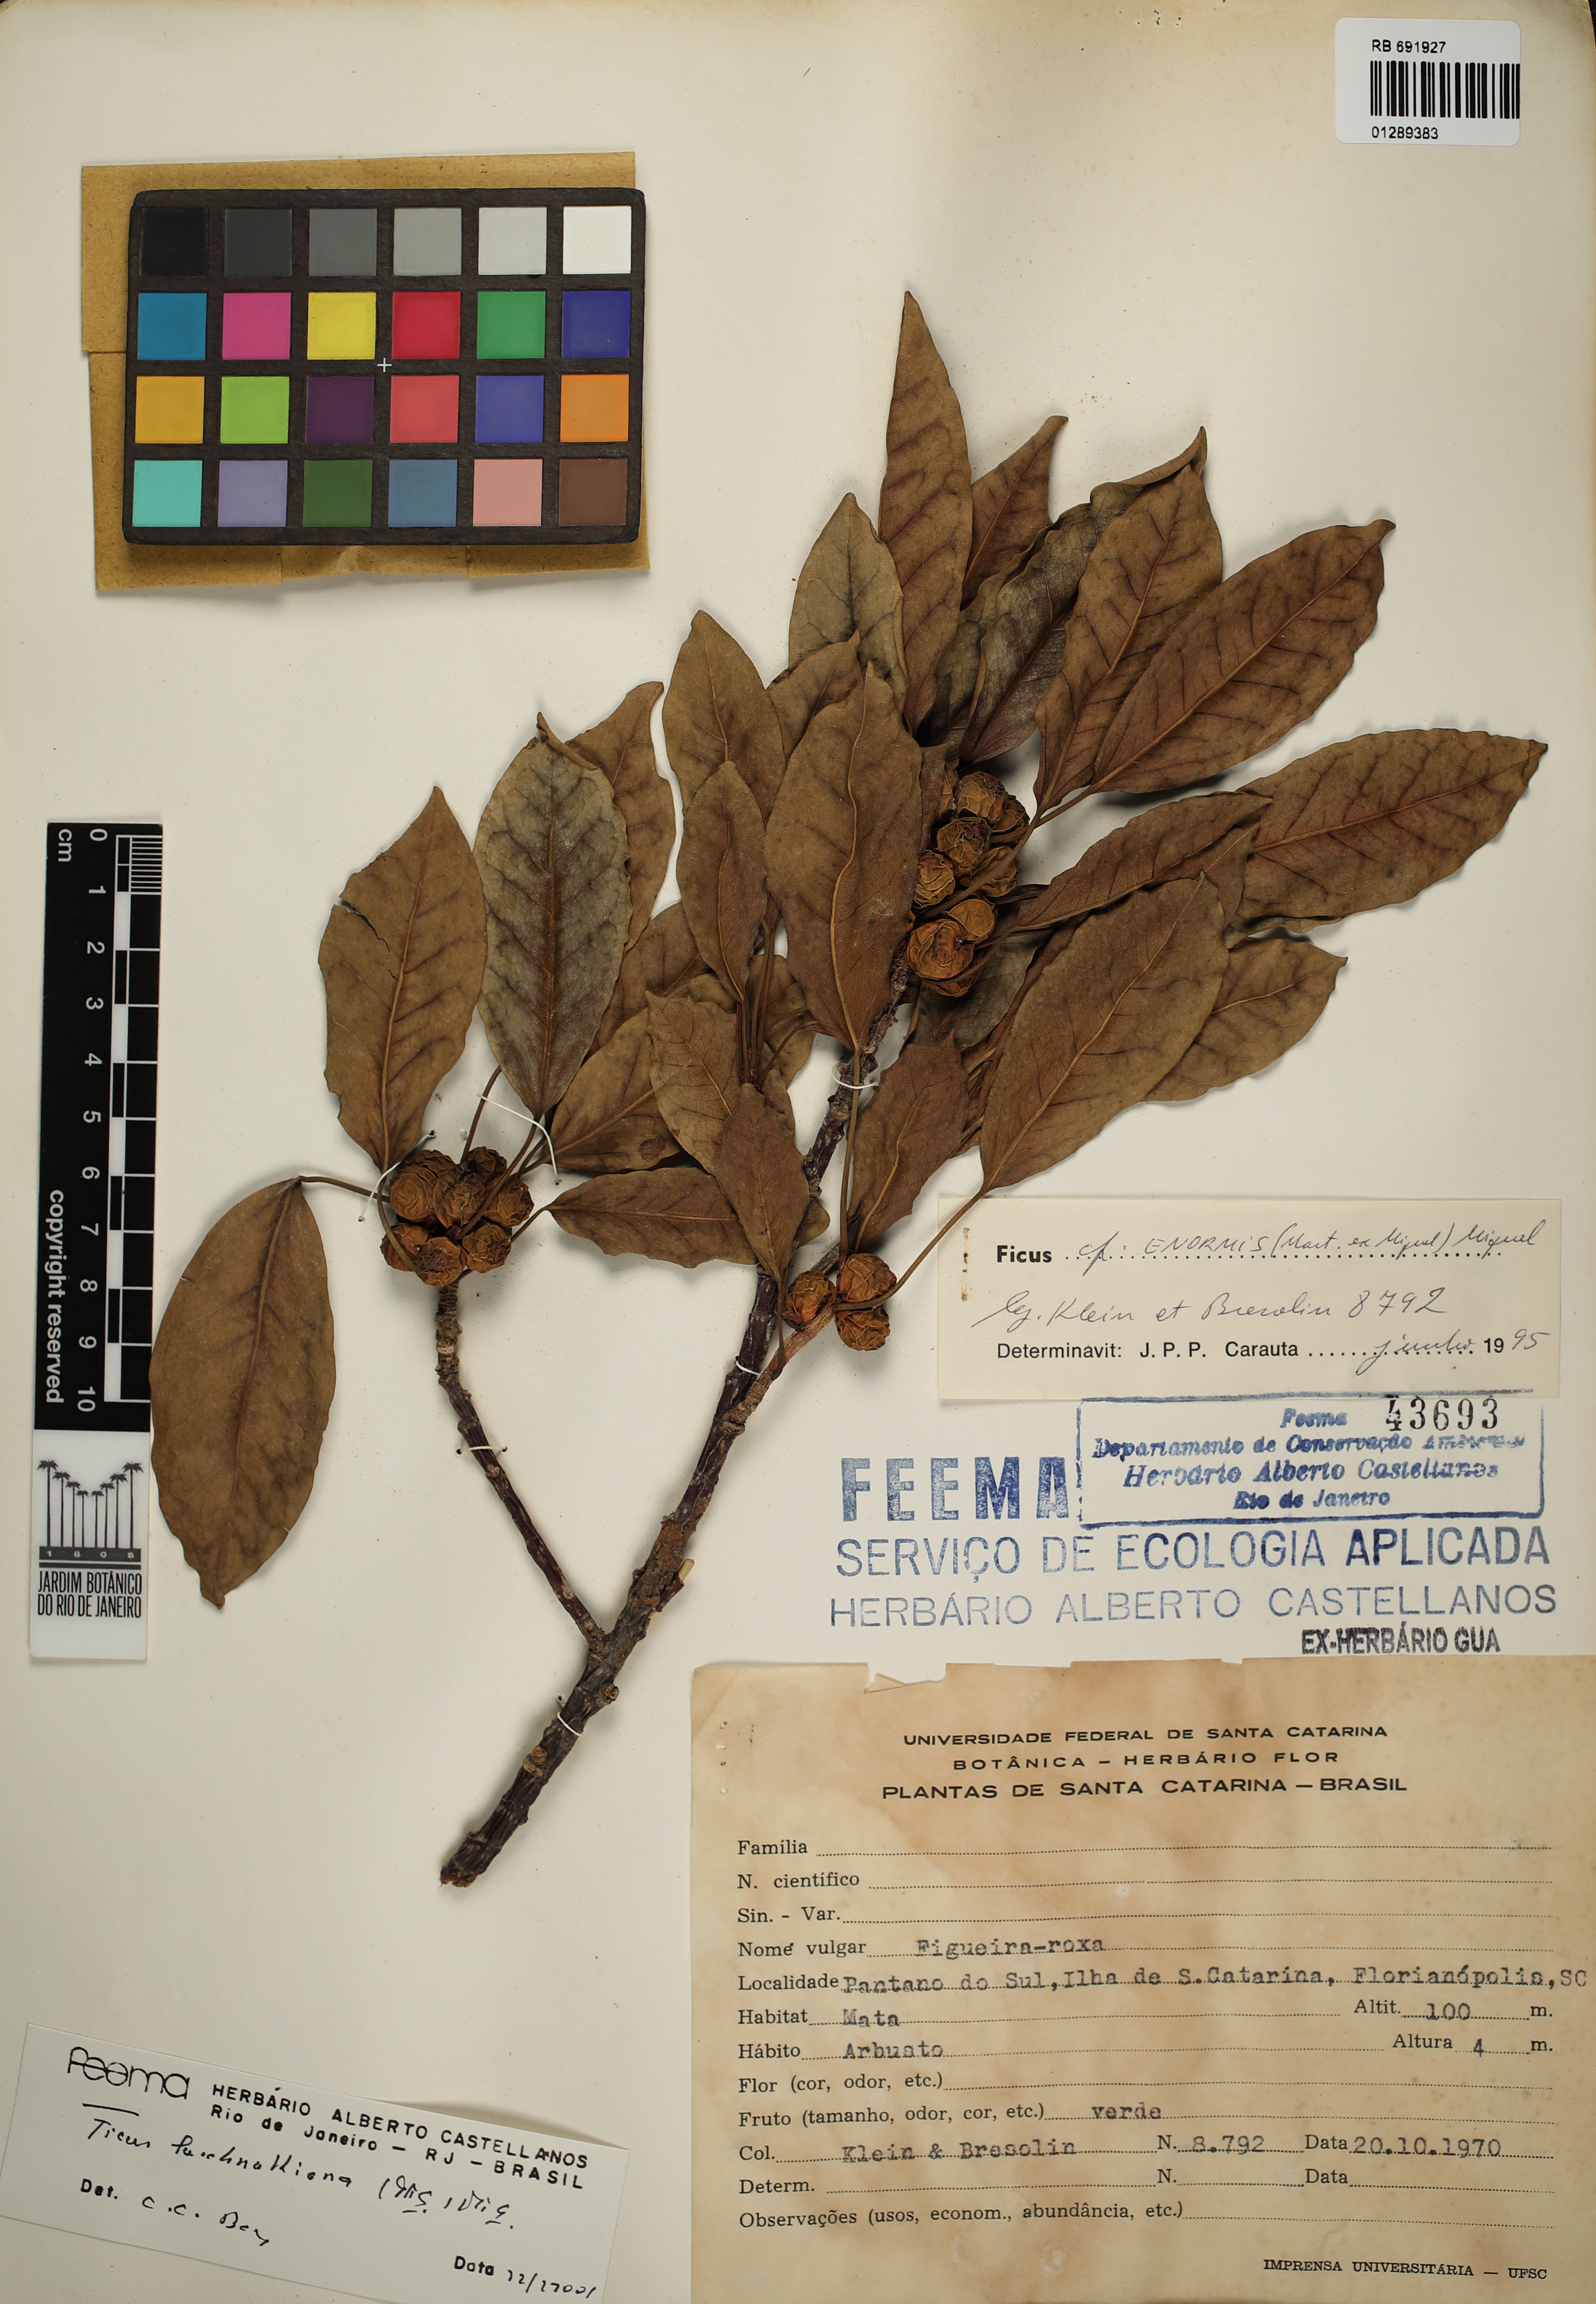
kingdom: Plantae
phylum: Tracheophyta
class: Magnoliopsida
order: Rosales
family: Moraceae
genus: Ficus
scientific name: Ficus luschnathiana
